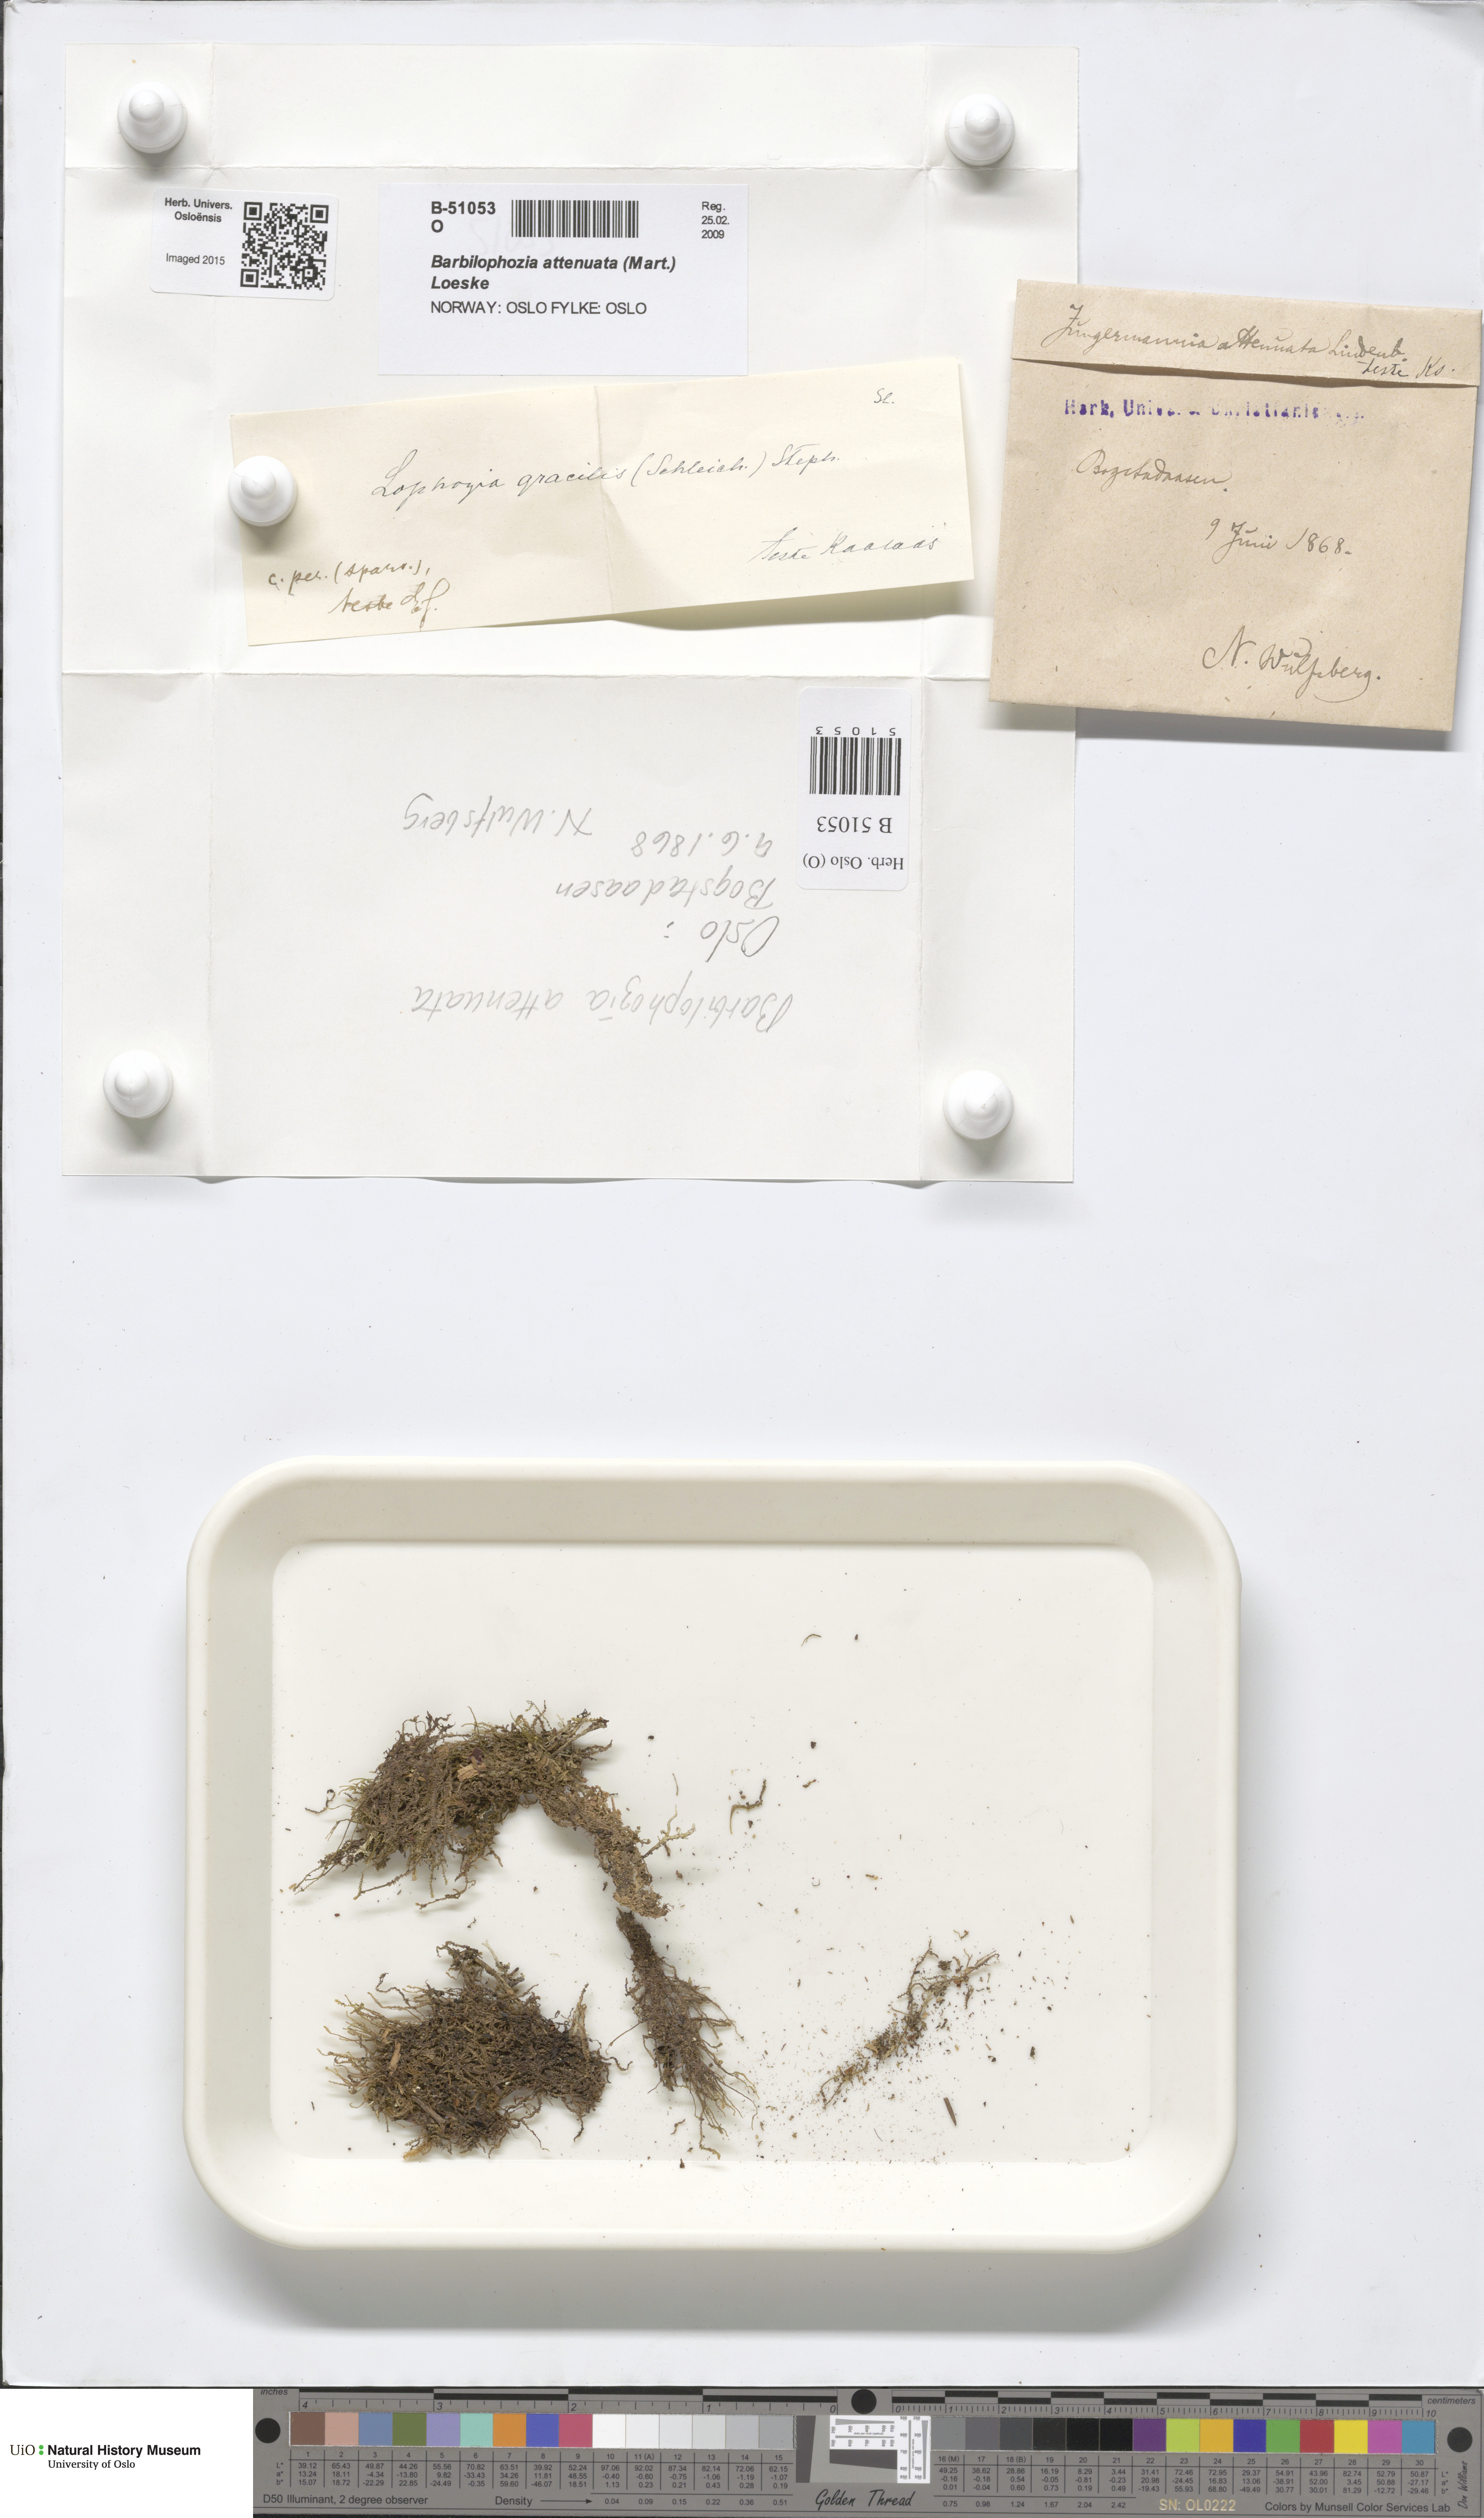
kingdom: Plantae
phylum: Marchantiophyta
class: Jungermanniopsida
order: Jungermanniales
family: Anastrophyllaceae
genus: Neoorthocaulis
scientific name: Neoorthocaulis attenuatus
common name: Trunk pawwort
